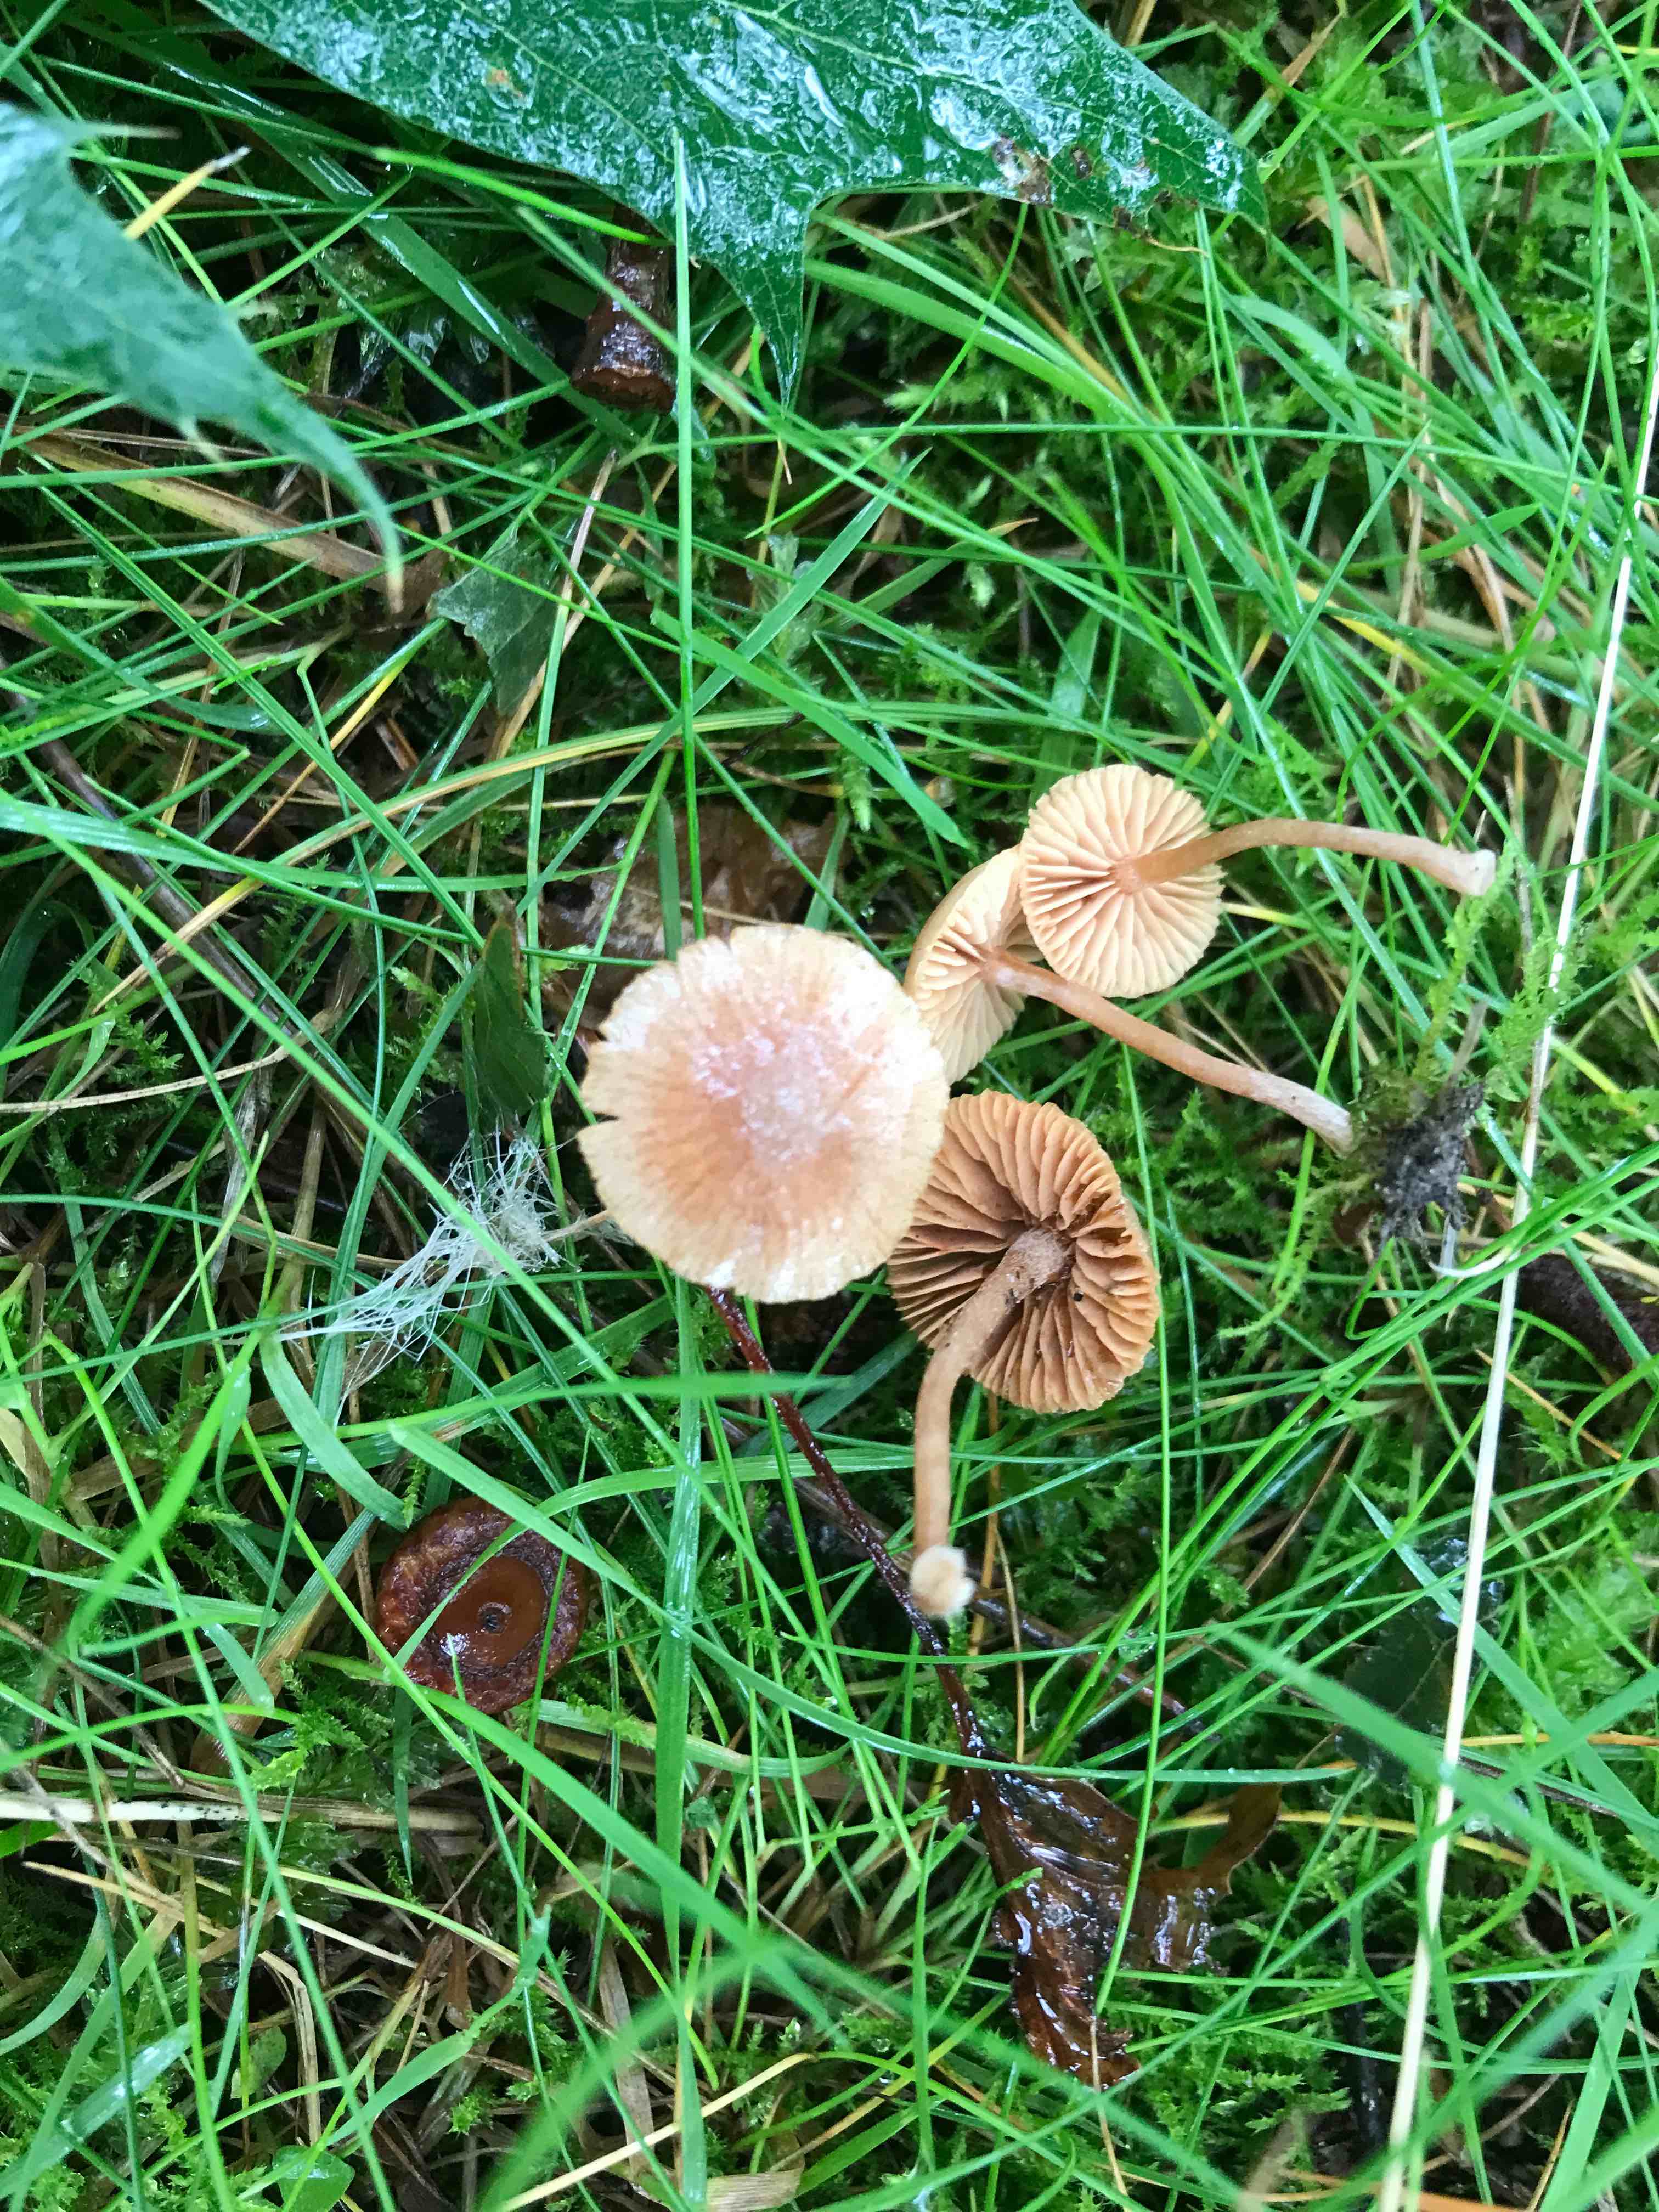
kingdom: Fungi
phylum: Basidiomycota
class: Agaricomycetes
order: Agaricales
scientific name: Agaricales
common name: champignonordenen
